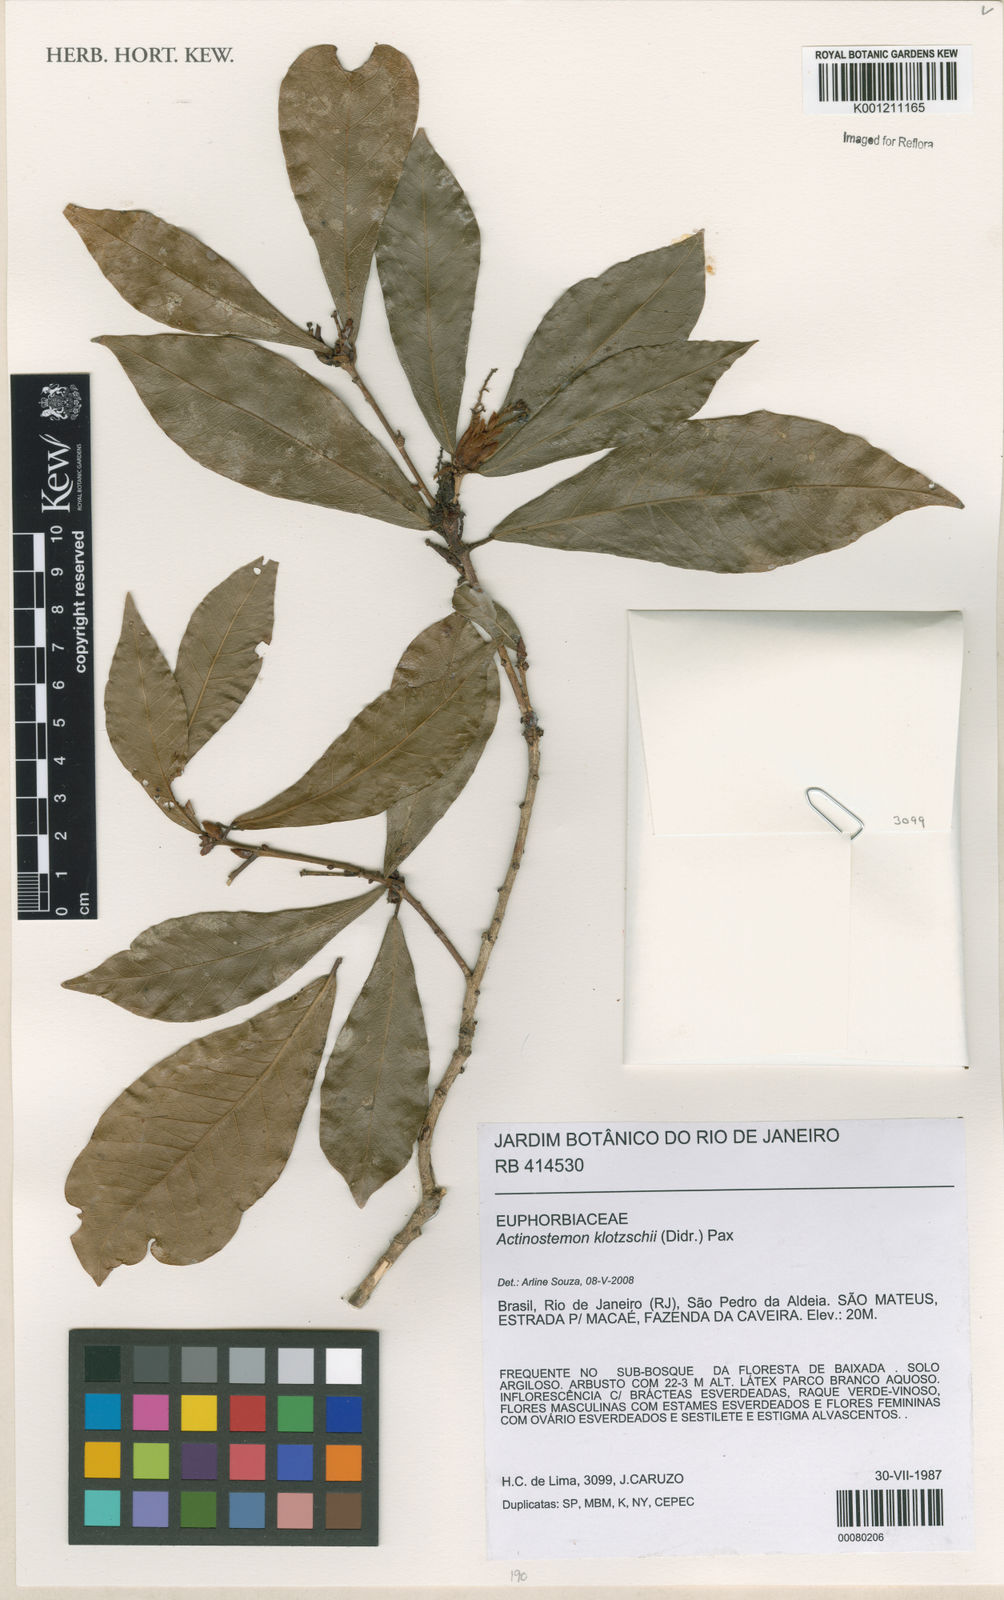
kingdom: Plantae
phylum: Tracheophyta
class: Magnoliopsida
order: Malpighiales
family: Euphorbiaceae
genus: Actinostemon
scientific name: Actinostemon klotzschii
